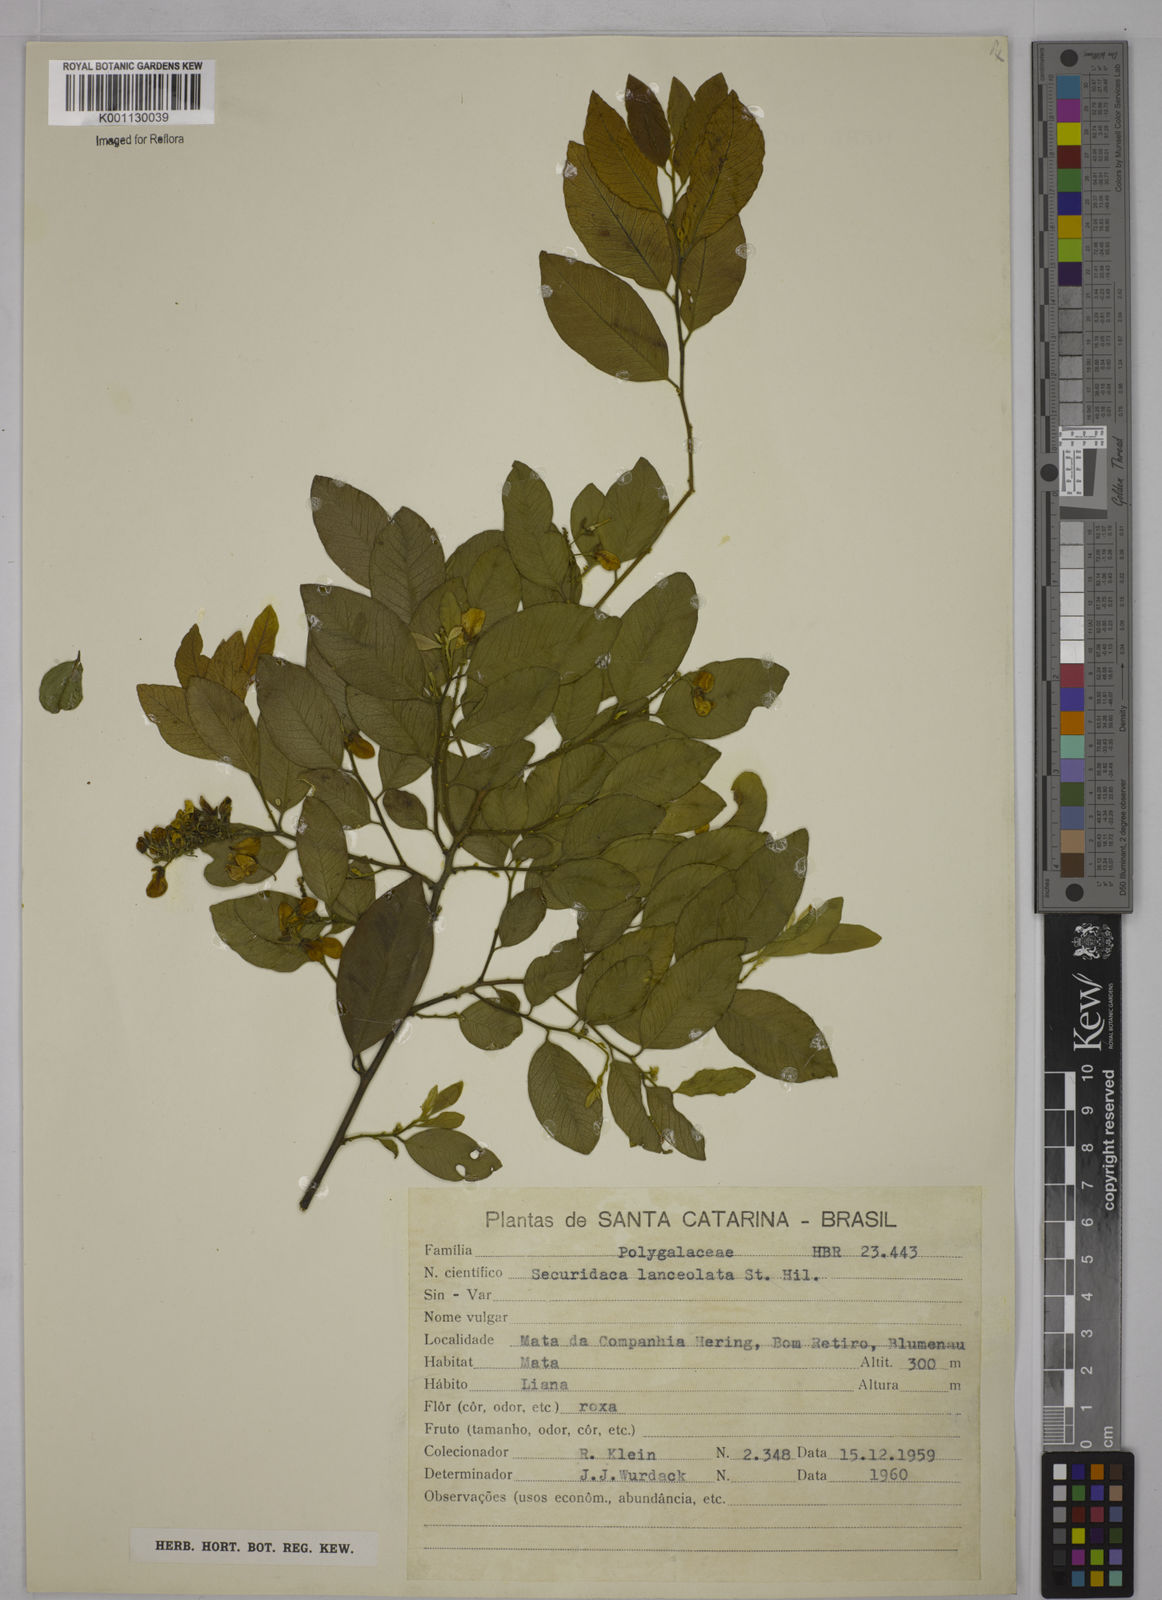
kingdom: Plantae
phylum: Tracheophyta
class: Magnoliopsida
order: Fabales
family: Polygalaceae
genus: Securidaca
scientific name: Securidaca lanceolata
